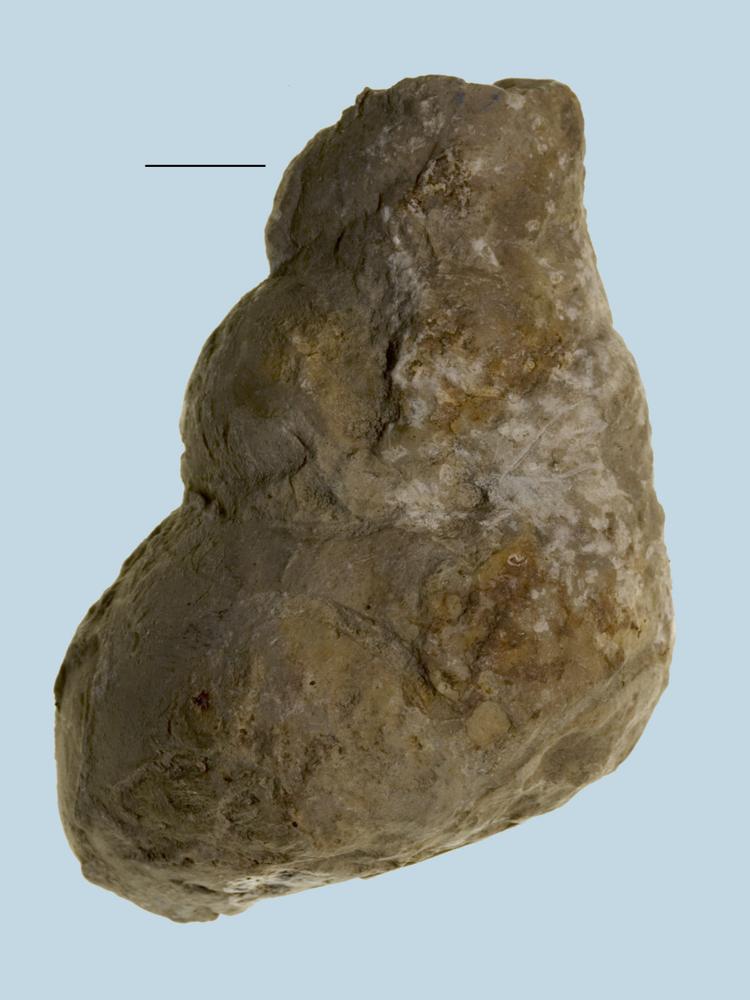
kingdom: Animalia
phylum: Mollusca
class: Gastropoda
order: Pleurotomariida
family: Murchisoniidae
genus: Murchisonia
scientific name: Murchisonia insignis
